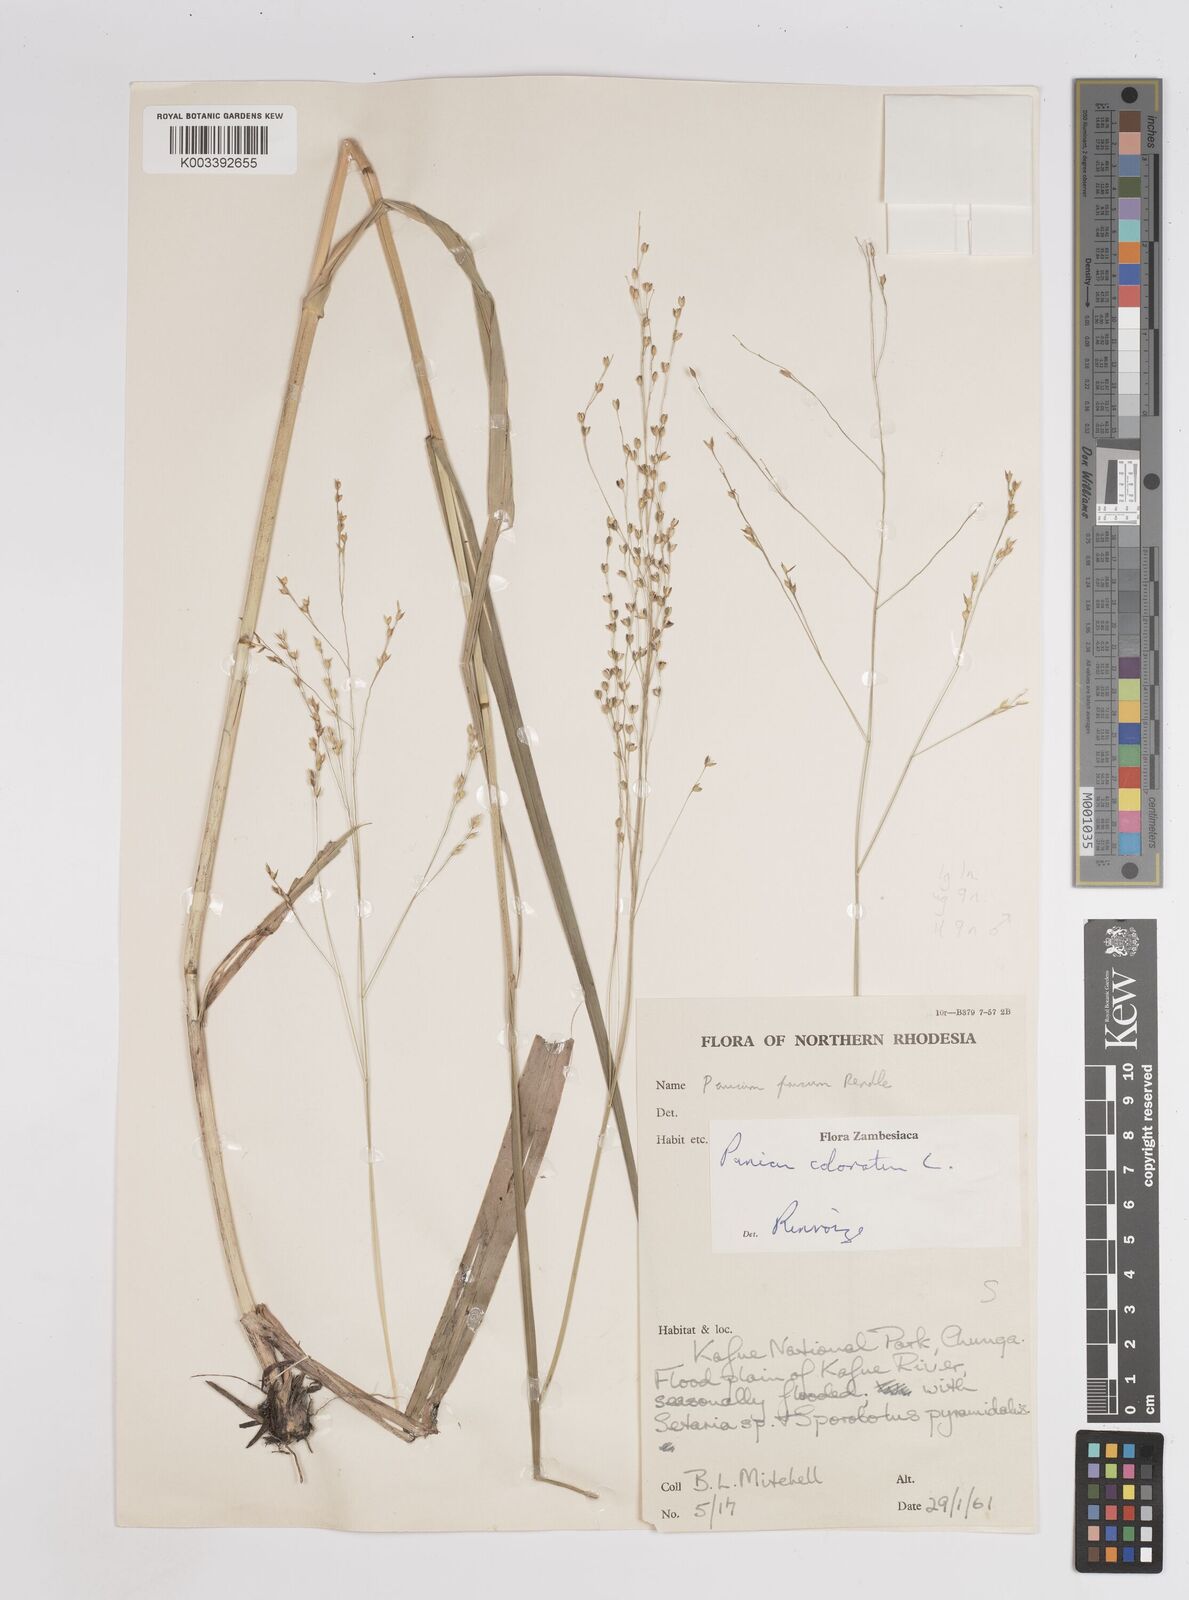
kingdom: Plantae
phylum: Tracheophyta
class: Liliopsida
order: Poales
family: Poaceae
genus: Panicum
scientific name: Panicum
